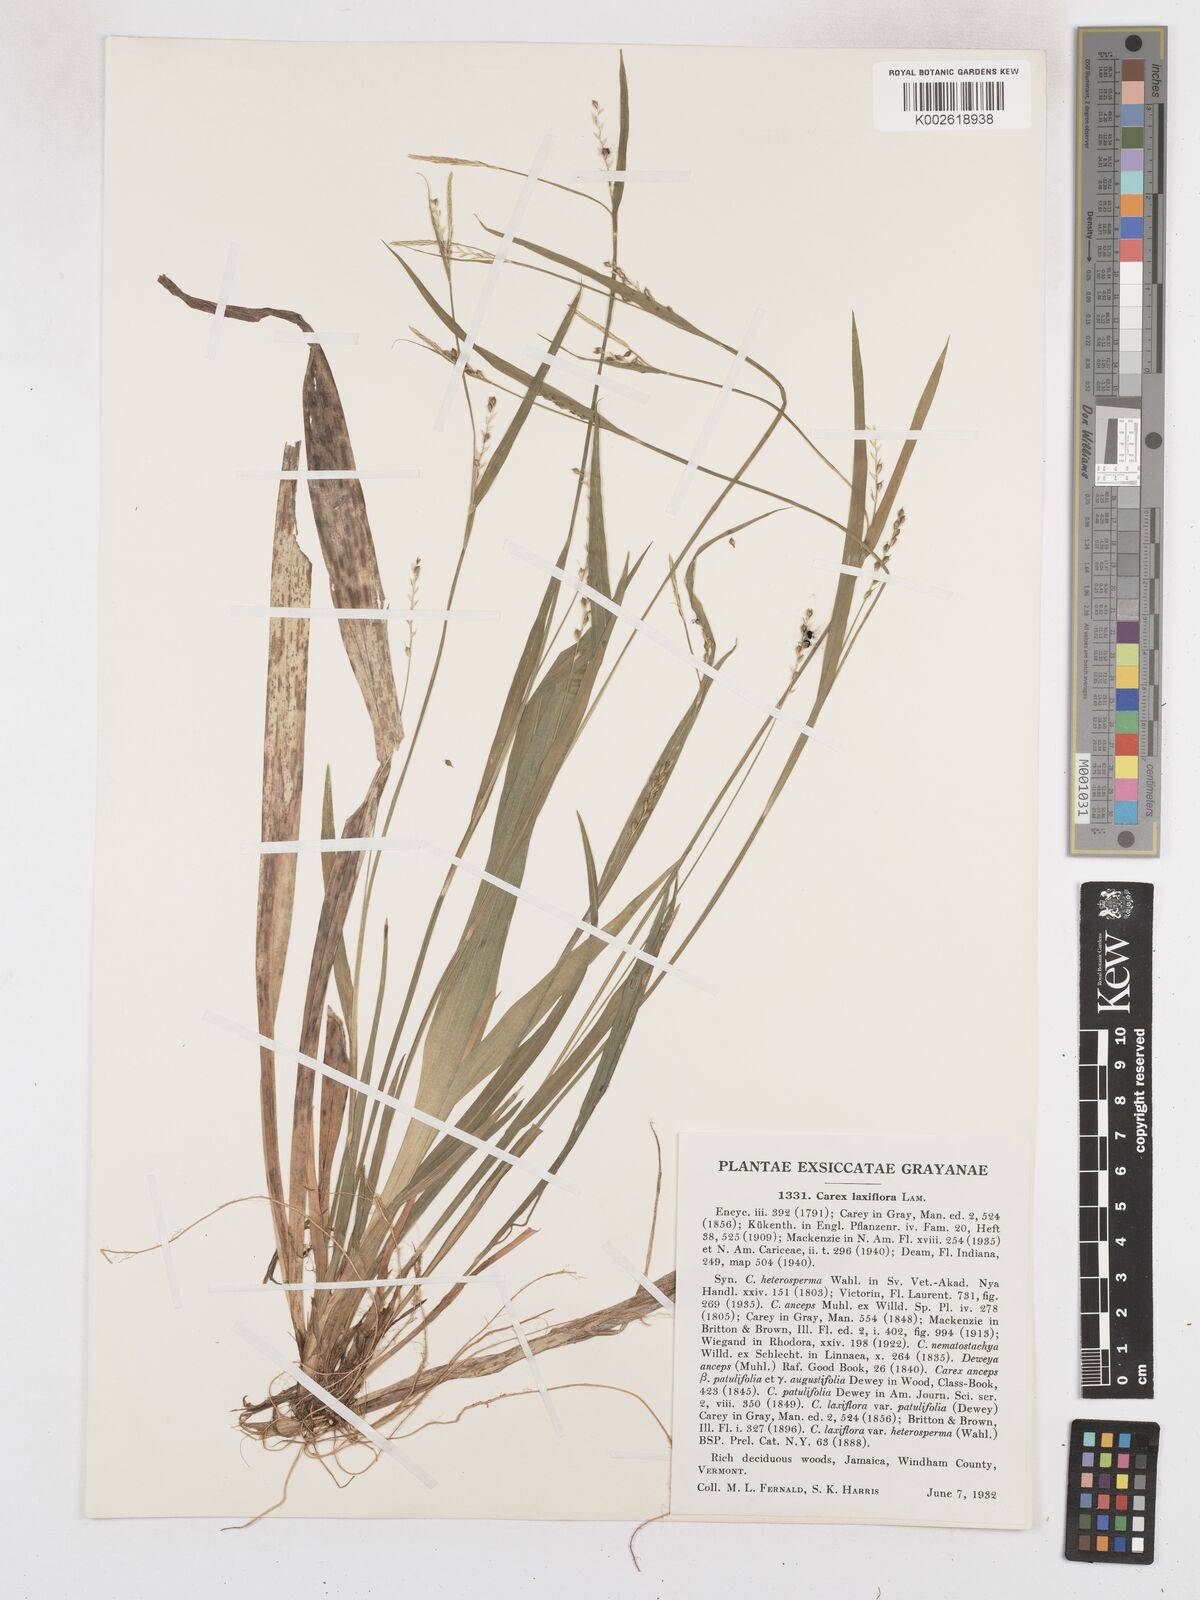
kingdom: Plantae
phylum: Tracheophyta
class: Liliopsida
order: Poales
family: Cyperaceae
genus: Carex
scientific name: Carex laxiflora
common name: Beech wood sedge
